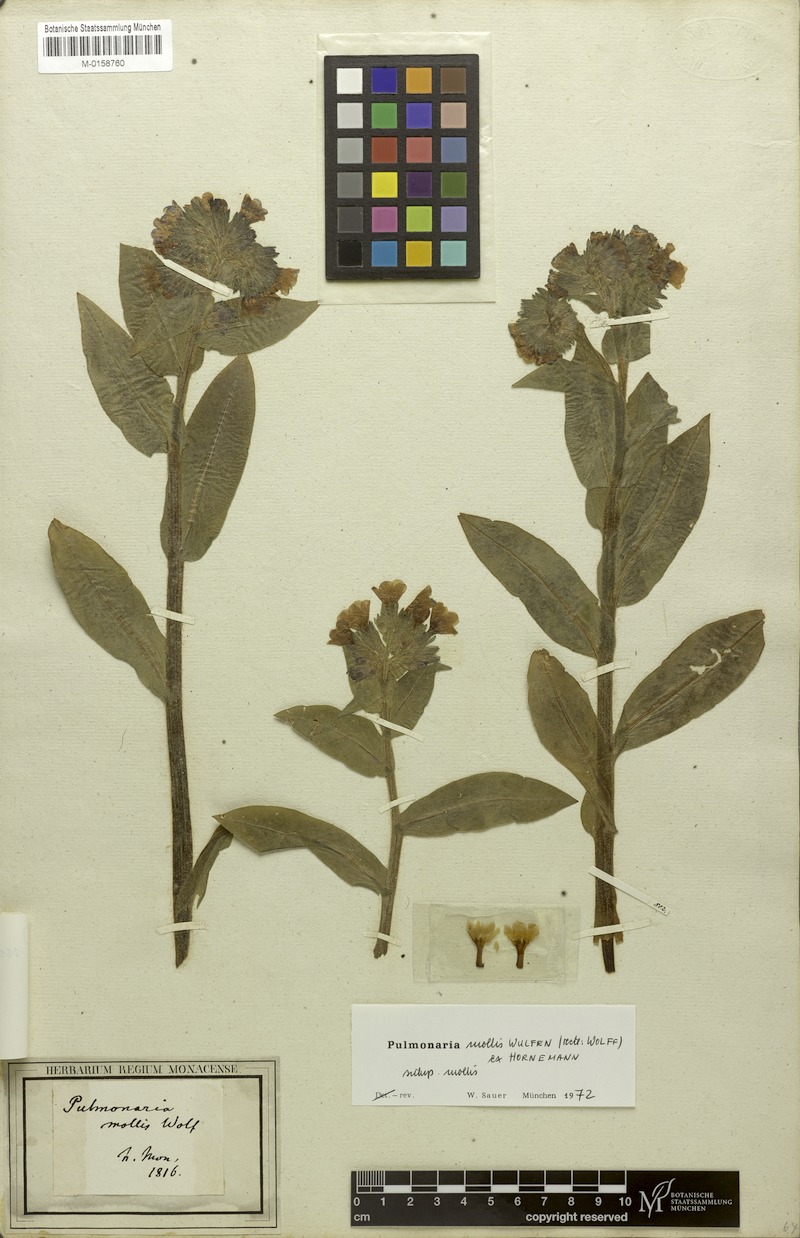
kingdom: Plantae
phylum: Tracheophyta
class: Magnoliopsida
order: Boraginales
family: Boraginaceae
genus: Pulmonaria
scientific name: Pulmonaria mollis
